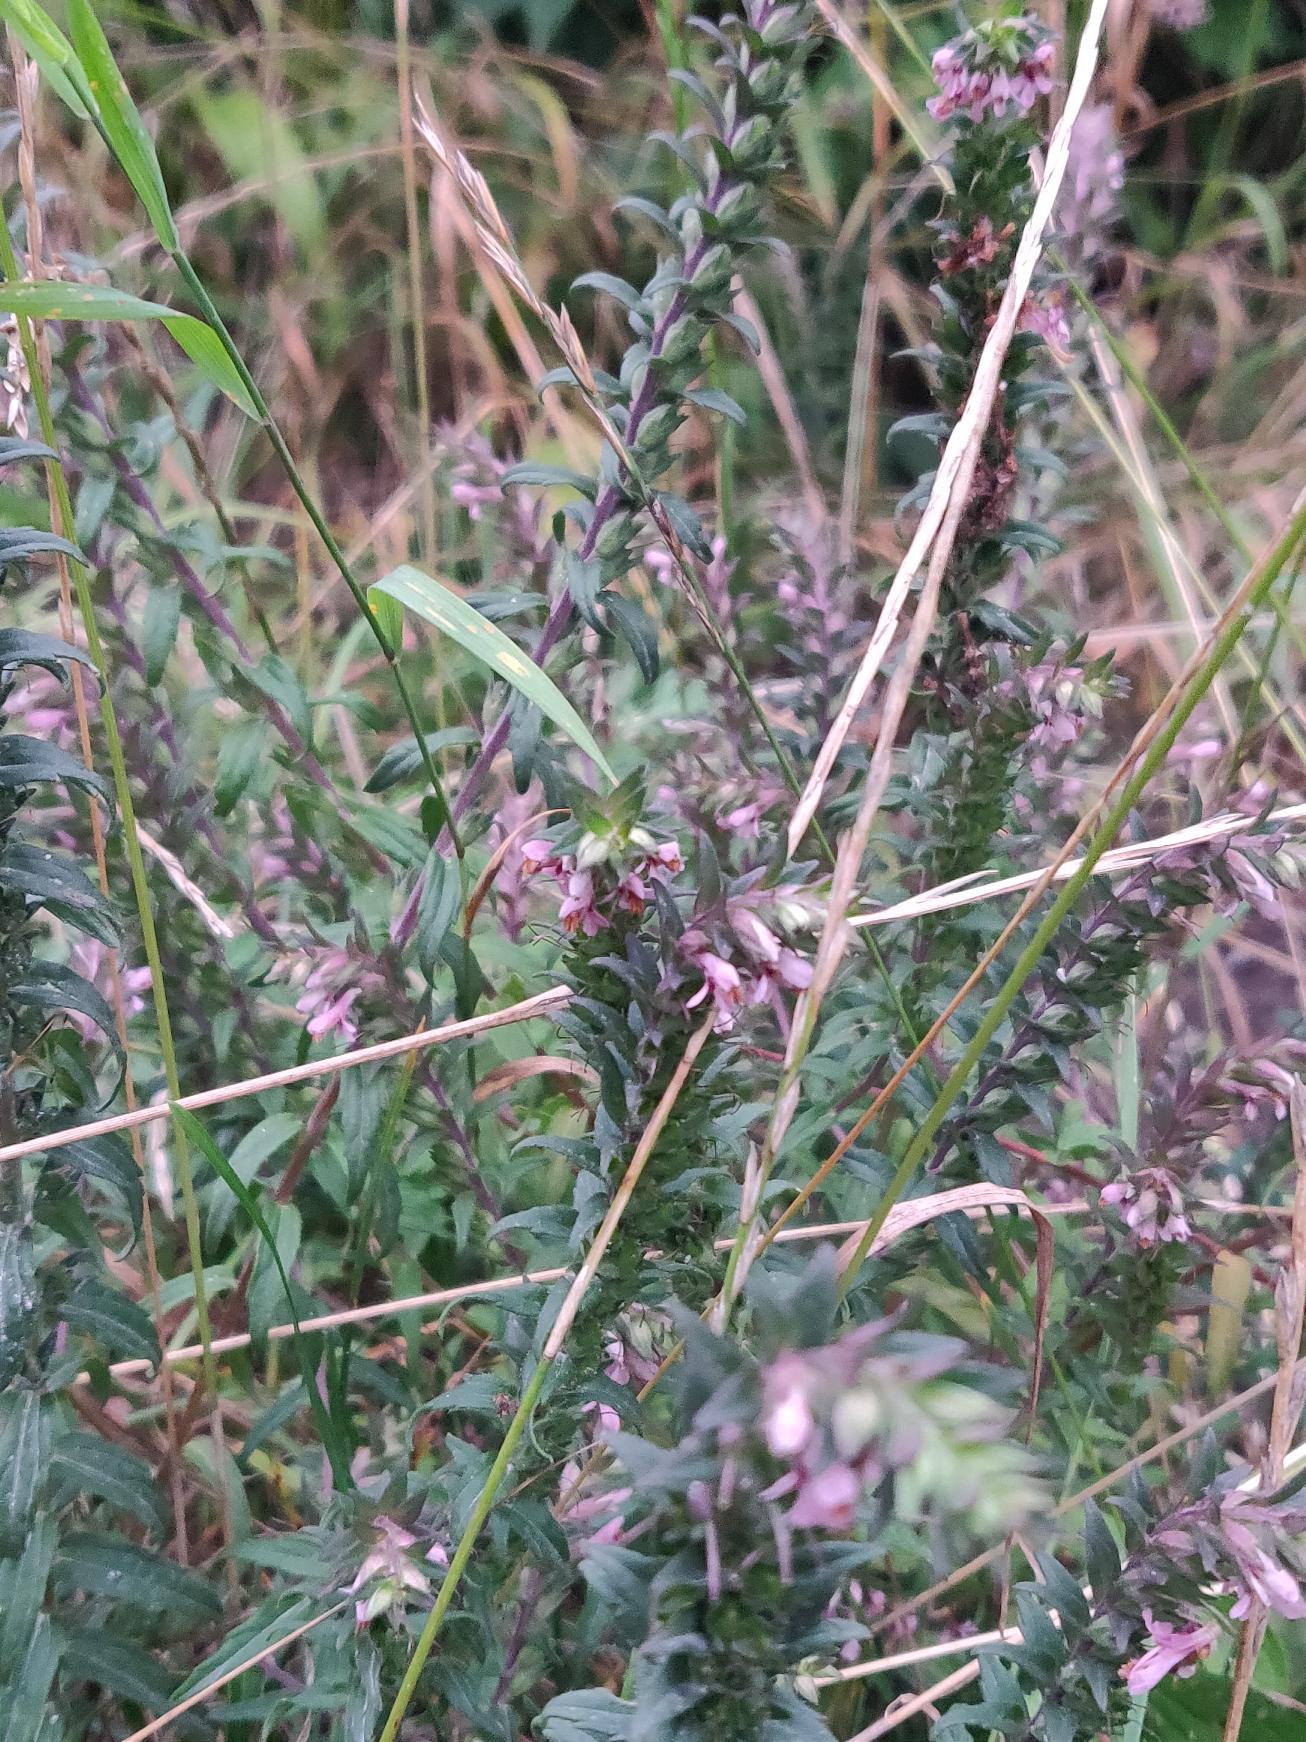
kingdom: Plantae
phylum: Tracheophyta
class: Magnoliopsida
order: Lamiales
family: Orobanchaceae
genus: Odontites
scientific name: Odontites vulgaris
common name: Høst-rødtop
